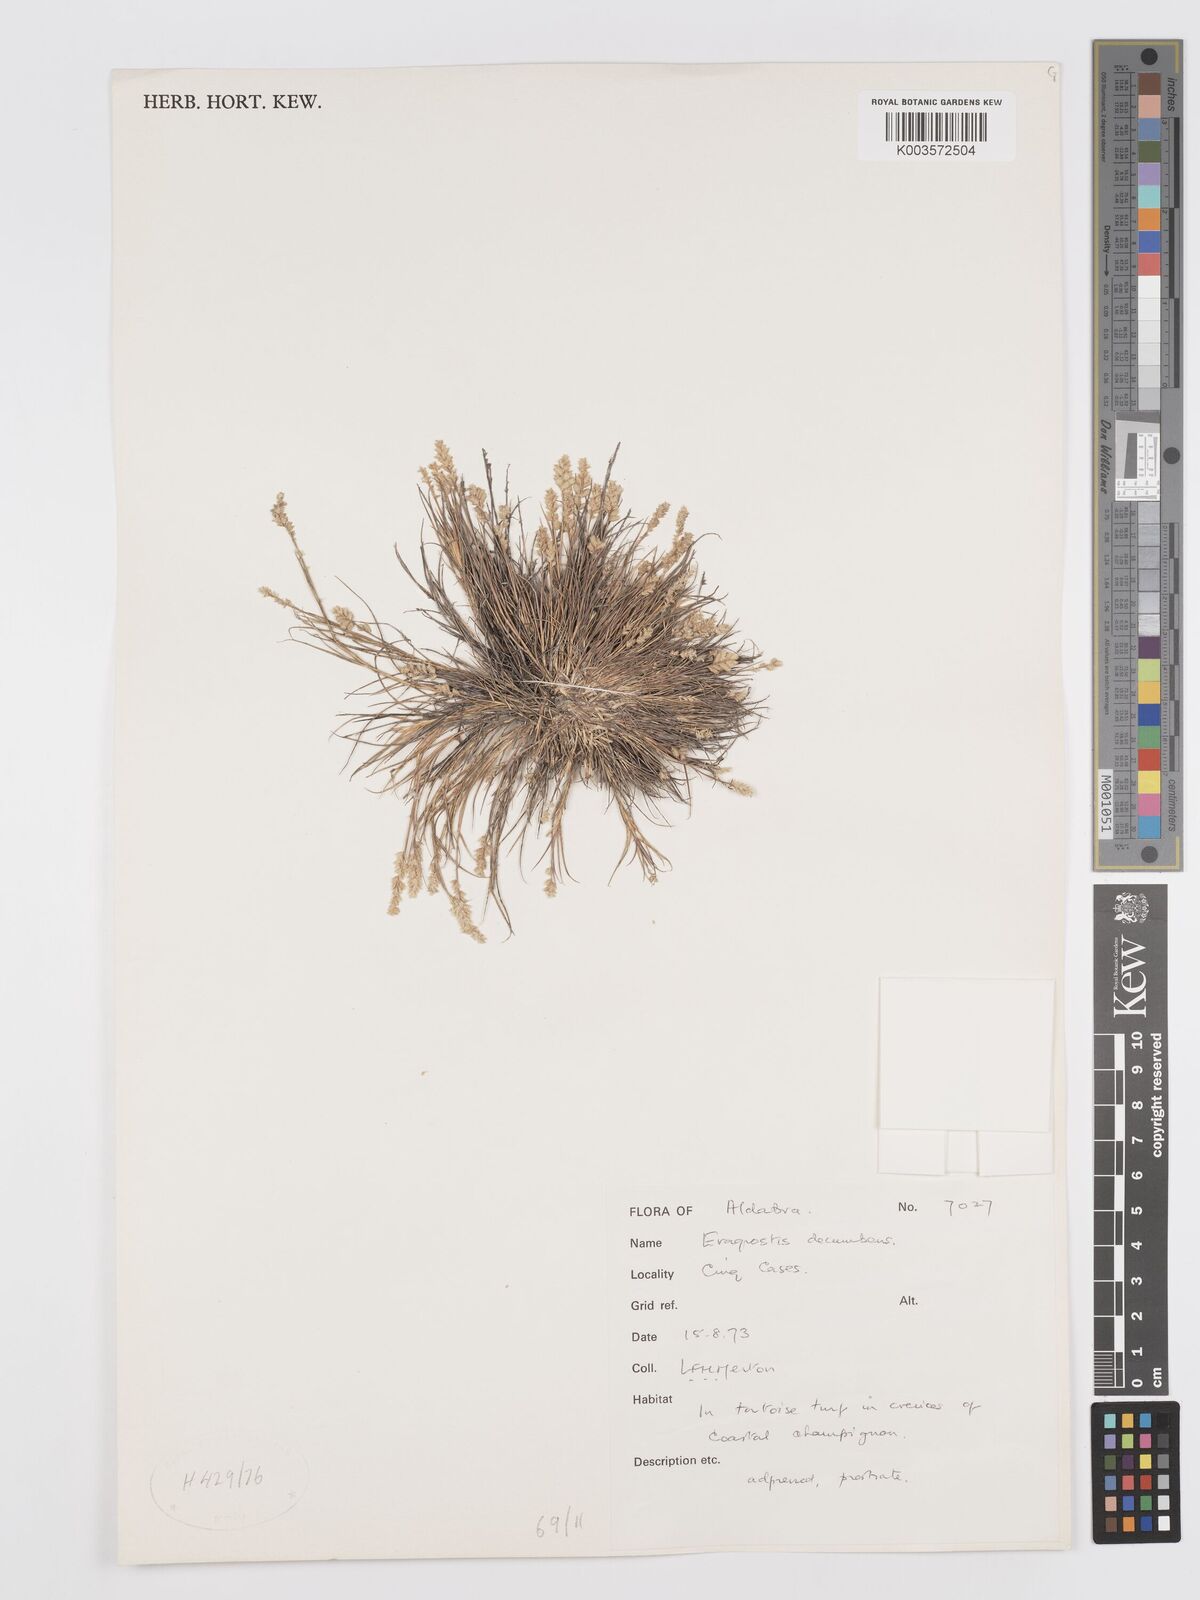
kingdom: Plantae
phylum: Tracheophyta
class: Liliopsida
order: Poales
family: Poaceae
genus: Eragrostis
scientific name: Eragrostis decumbens
